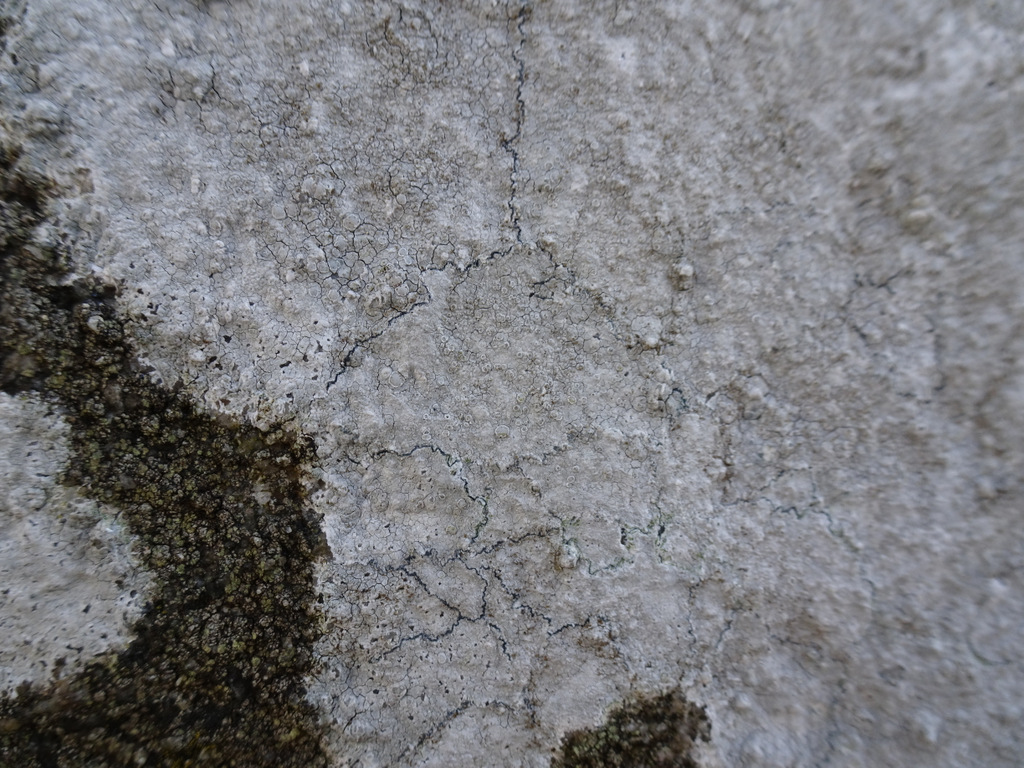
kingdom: Fungi
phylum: Ascomycota
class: Lecanoromycetes
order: Lecanorales
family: Lecanoraceae
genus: Glaucomaria
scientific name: Glaucomaria rupicola
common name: stengærde-kantskivelav
